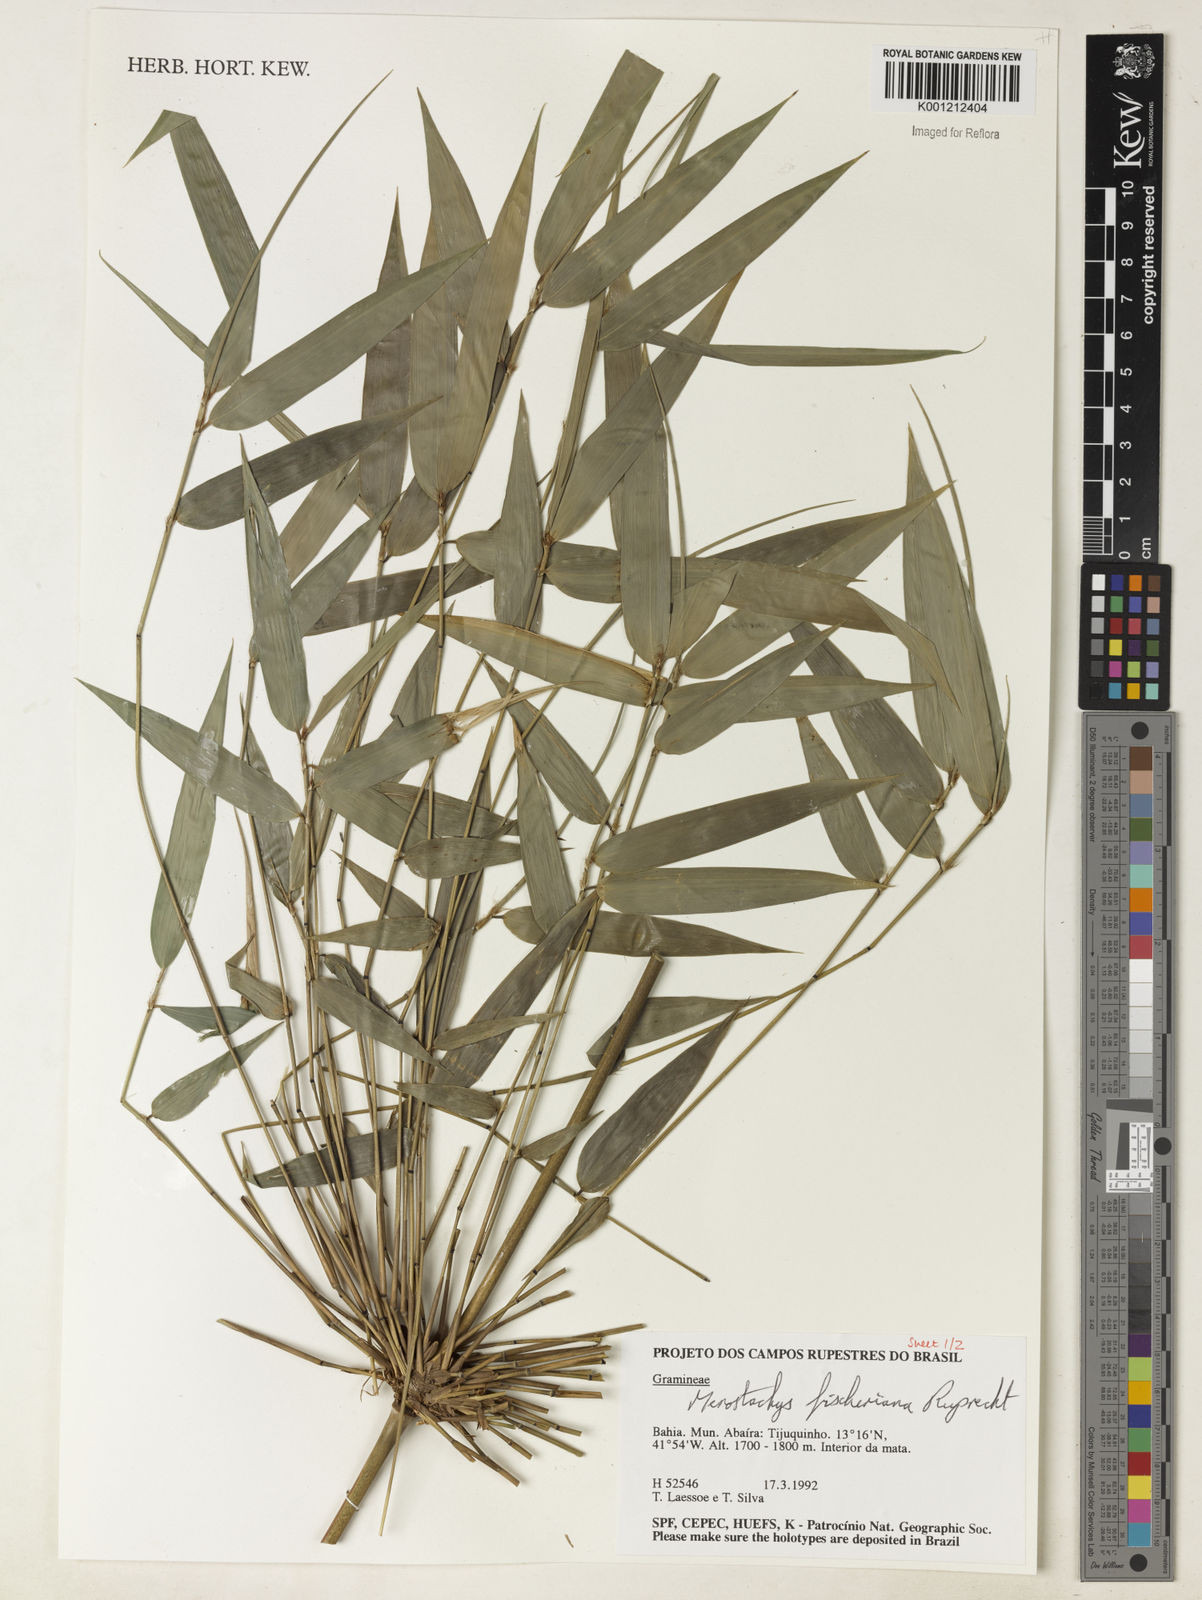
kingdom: Plantae
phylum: Tracheophyta
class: Liliopsida
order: Poales
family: Poaceae
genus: Merostachys
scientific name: Merostachys
